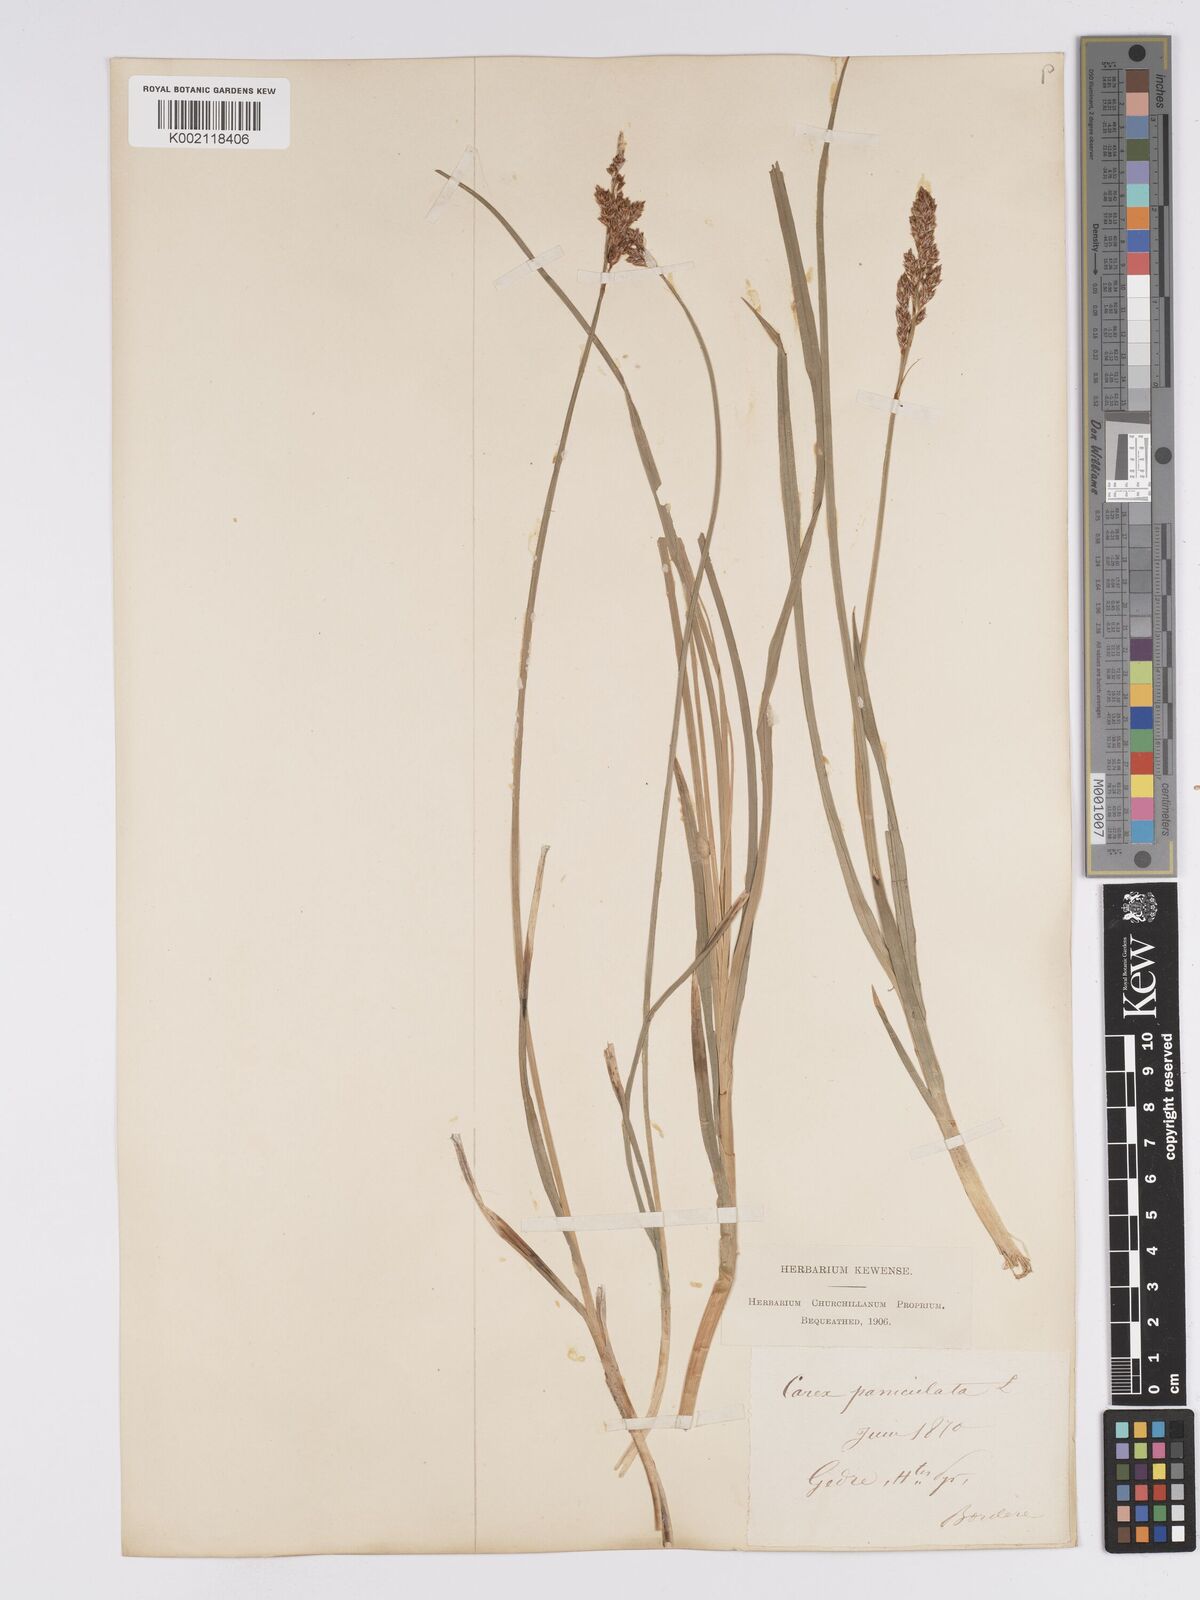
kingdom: Plantae
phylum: Tracheophyta
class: Liliopsida
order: Poales
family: Cyperaceae
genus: Carex
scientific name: Carex paniculata
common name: Greater tussock-sedge
